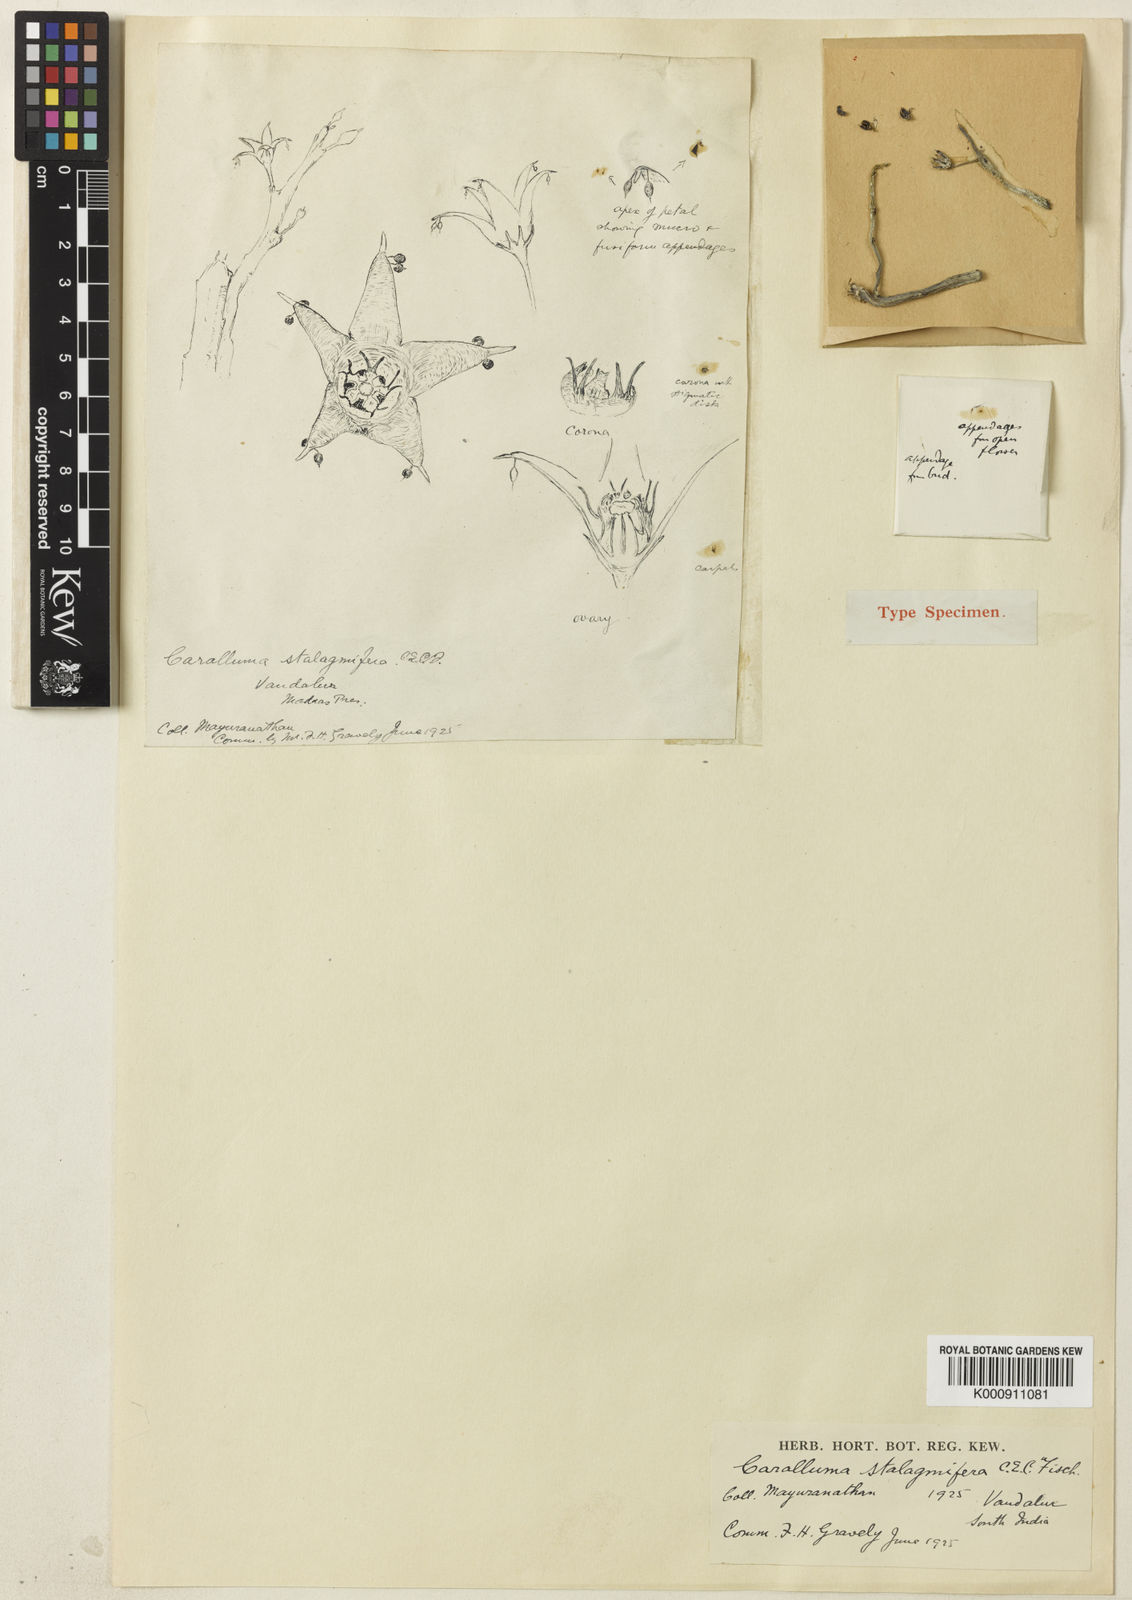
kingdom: Plantae
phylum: Tracheophyta
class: Magnoliopsida
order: Gentianales
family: Apocynaceae
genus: Ceropegia
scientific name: Ceropegia stalagmifera
